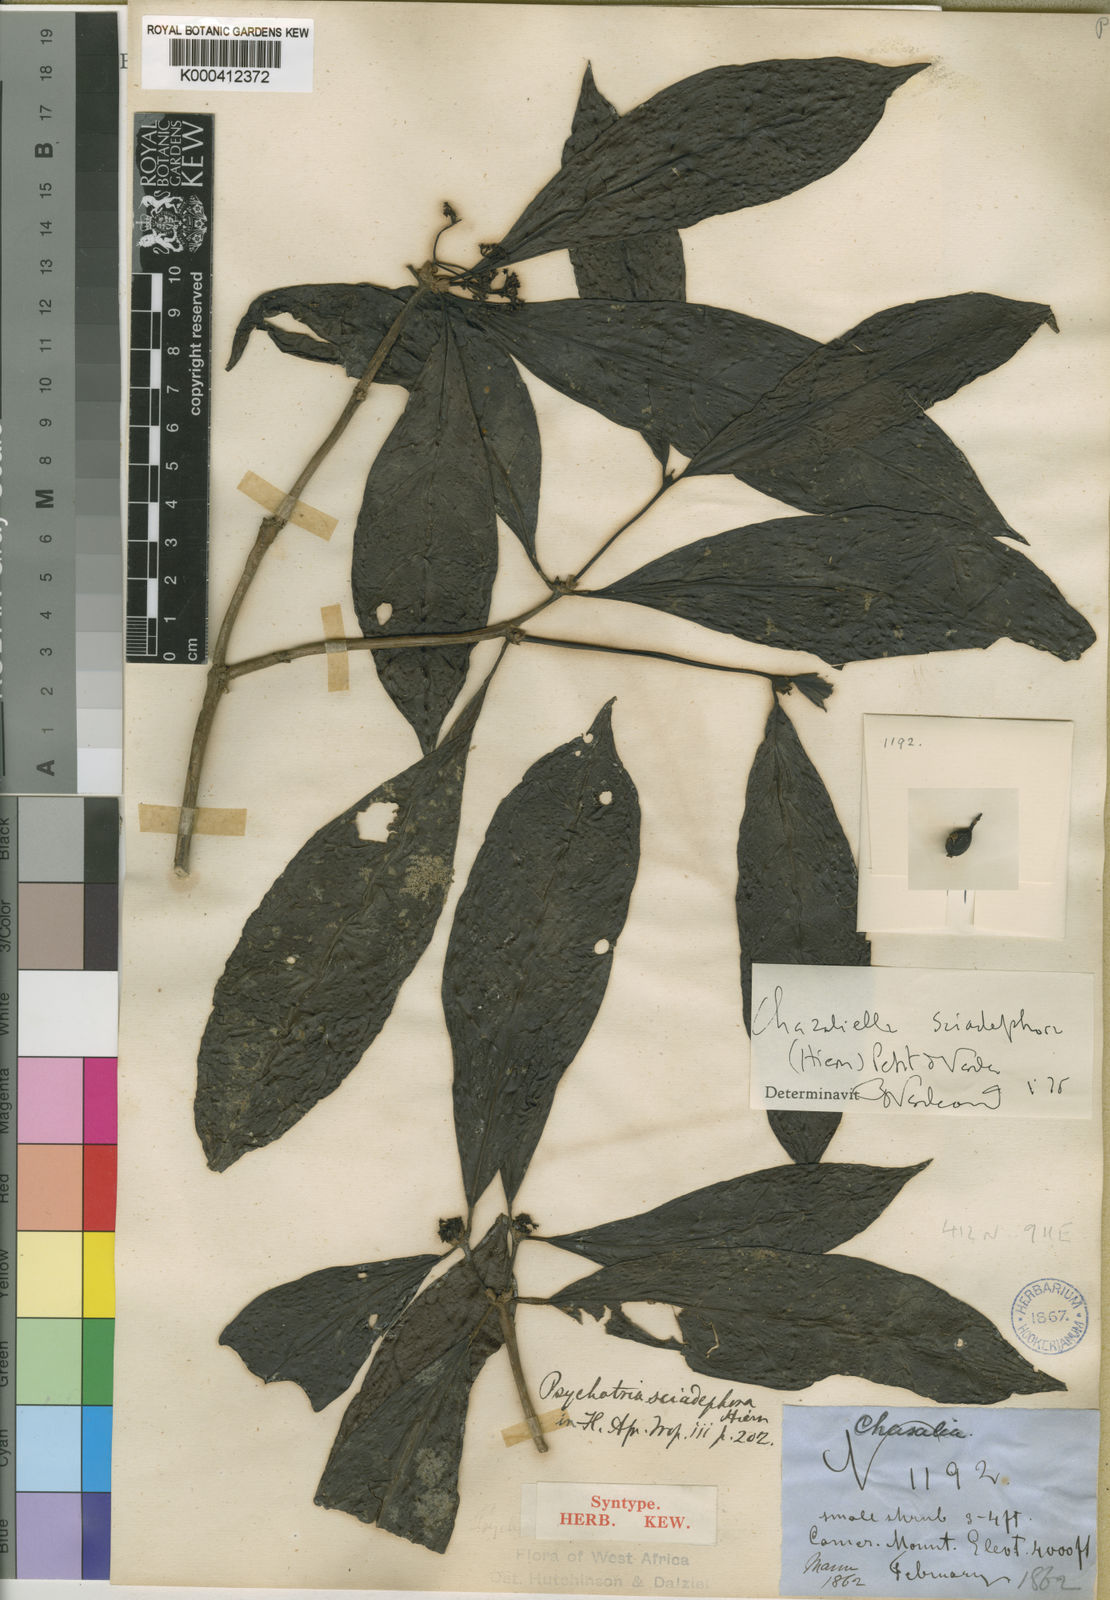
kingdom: Plantae
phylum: Tracheophyta
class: Magnoliopsida
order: Gentianales
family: Rubiaceae
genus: Eumachia
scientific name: Eumachia sciadephora
